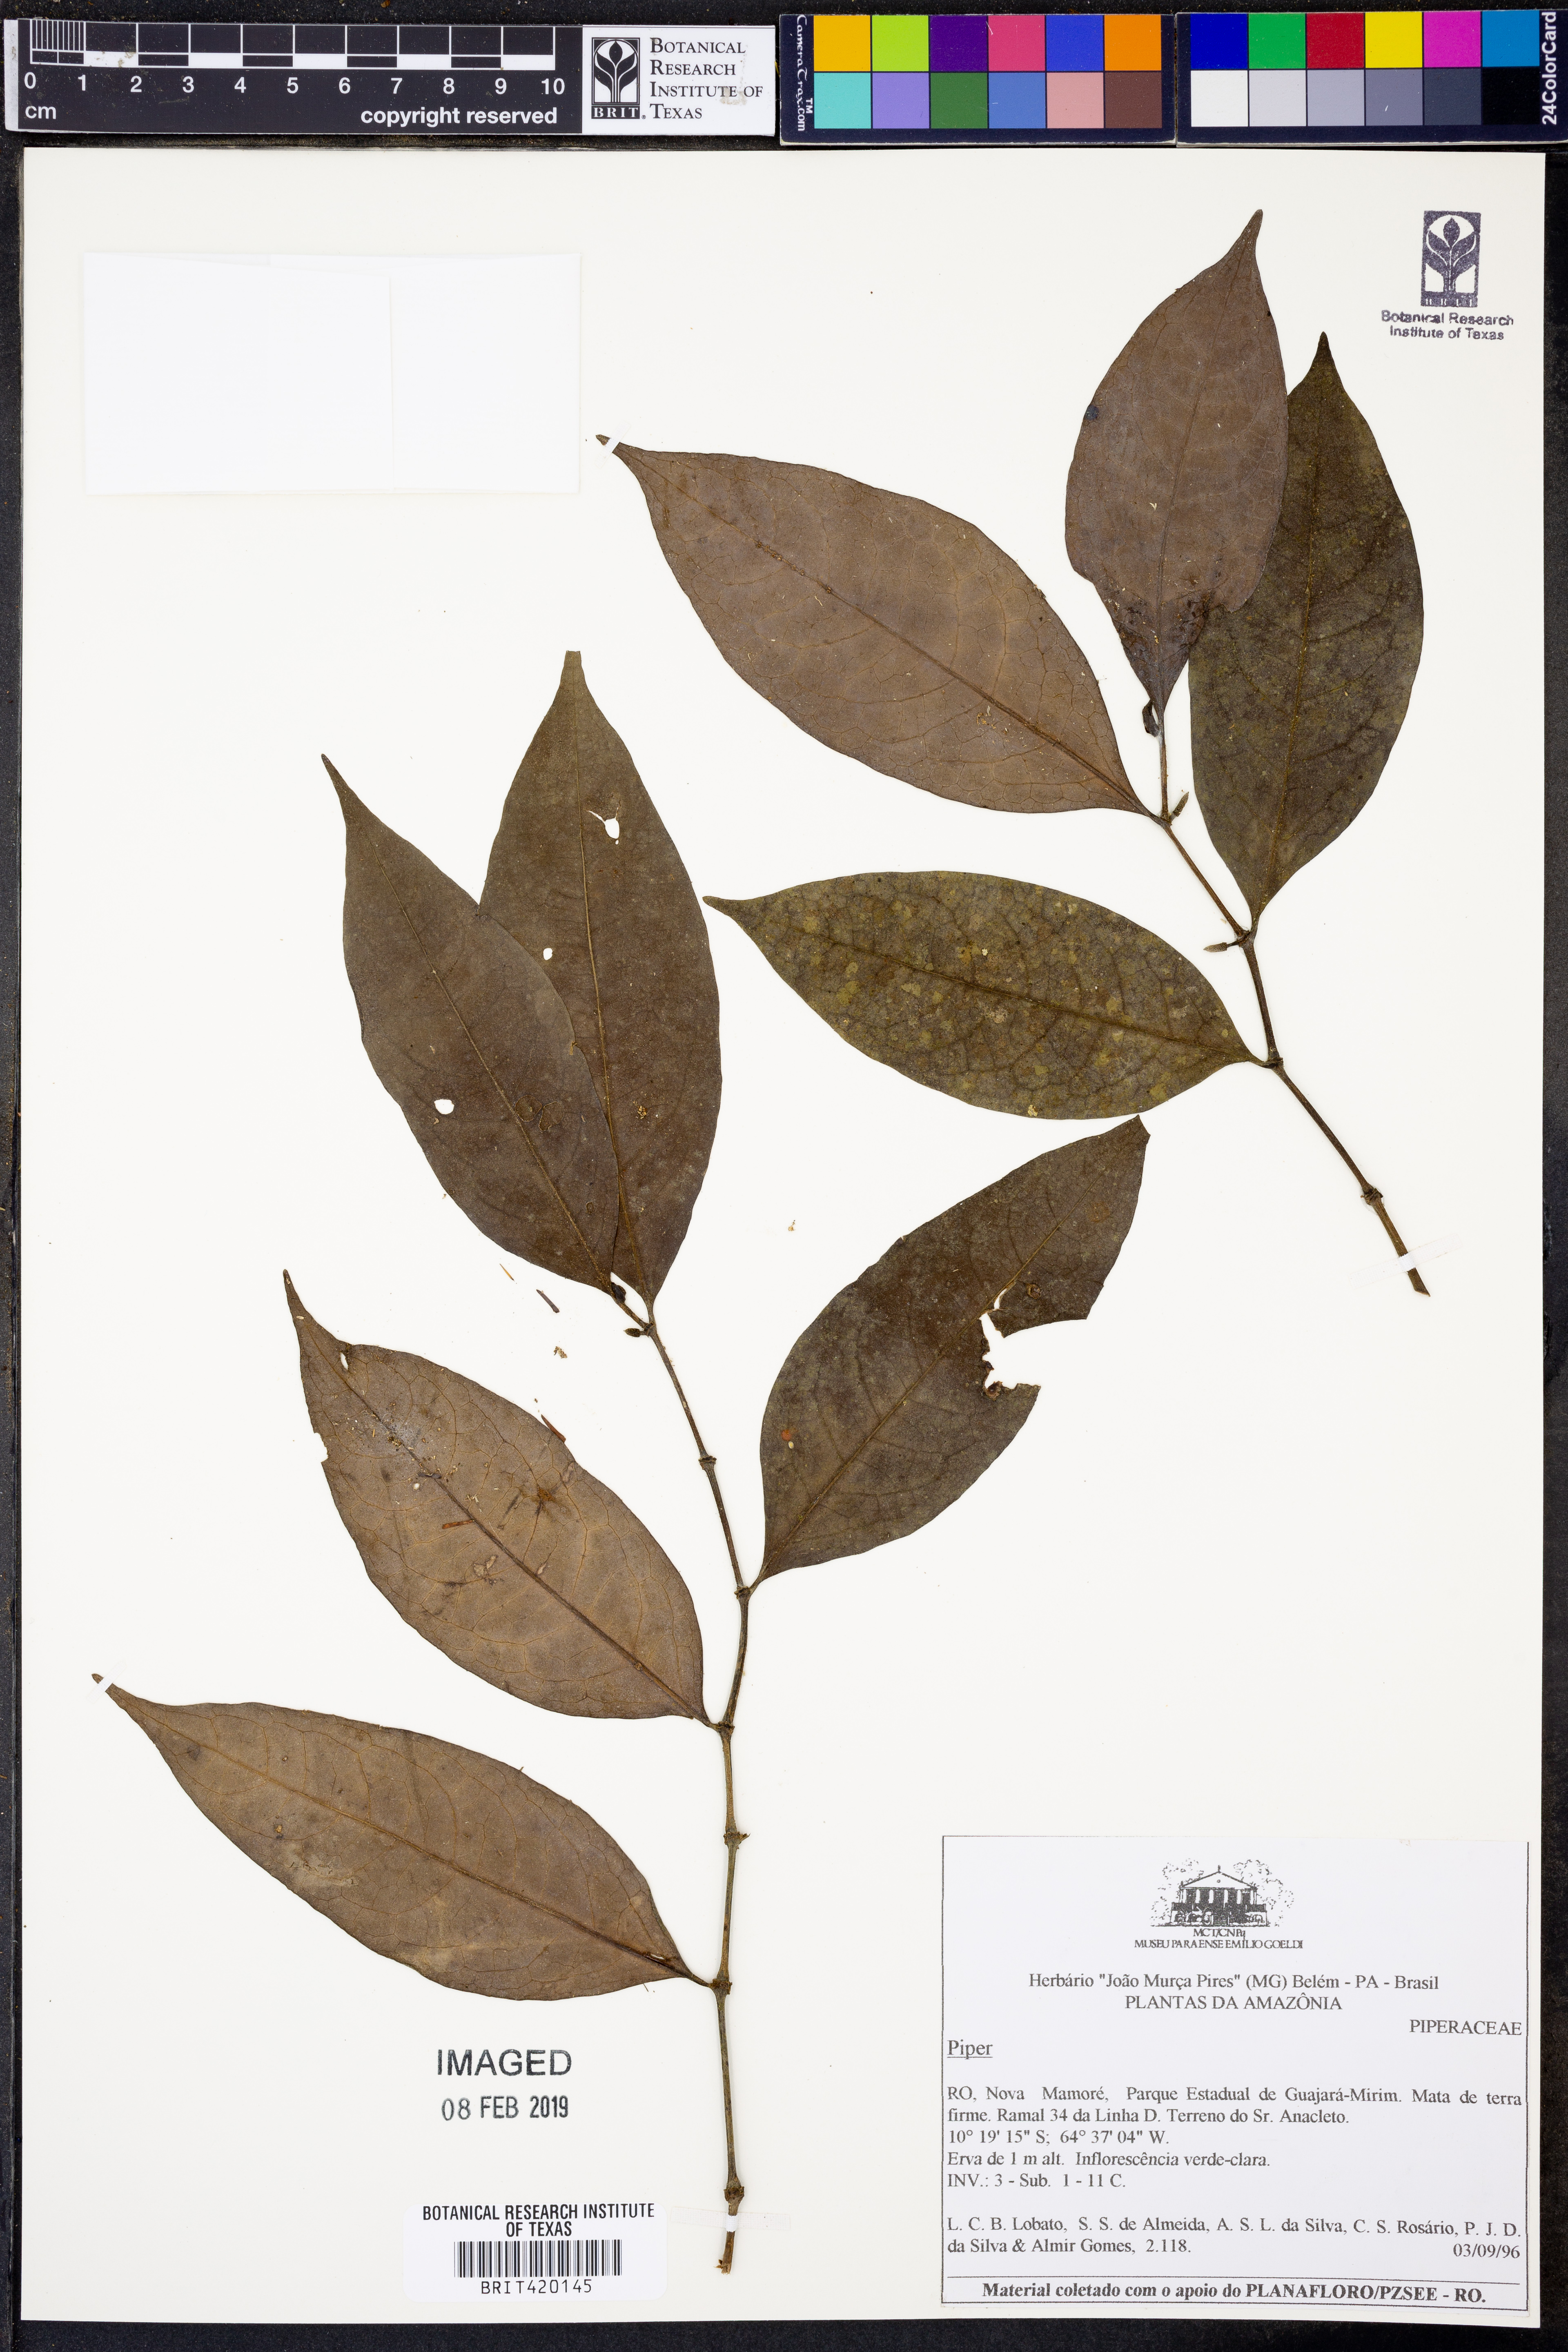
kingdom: Plantae
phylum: Tracheophyta
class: Magnoliopsida
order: Piperales
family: Piperaceae
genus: Piper
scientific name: Piper
